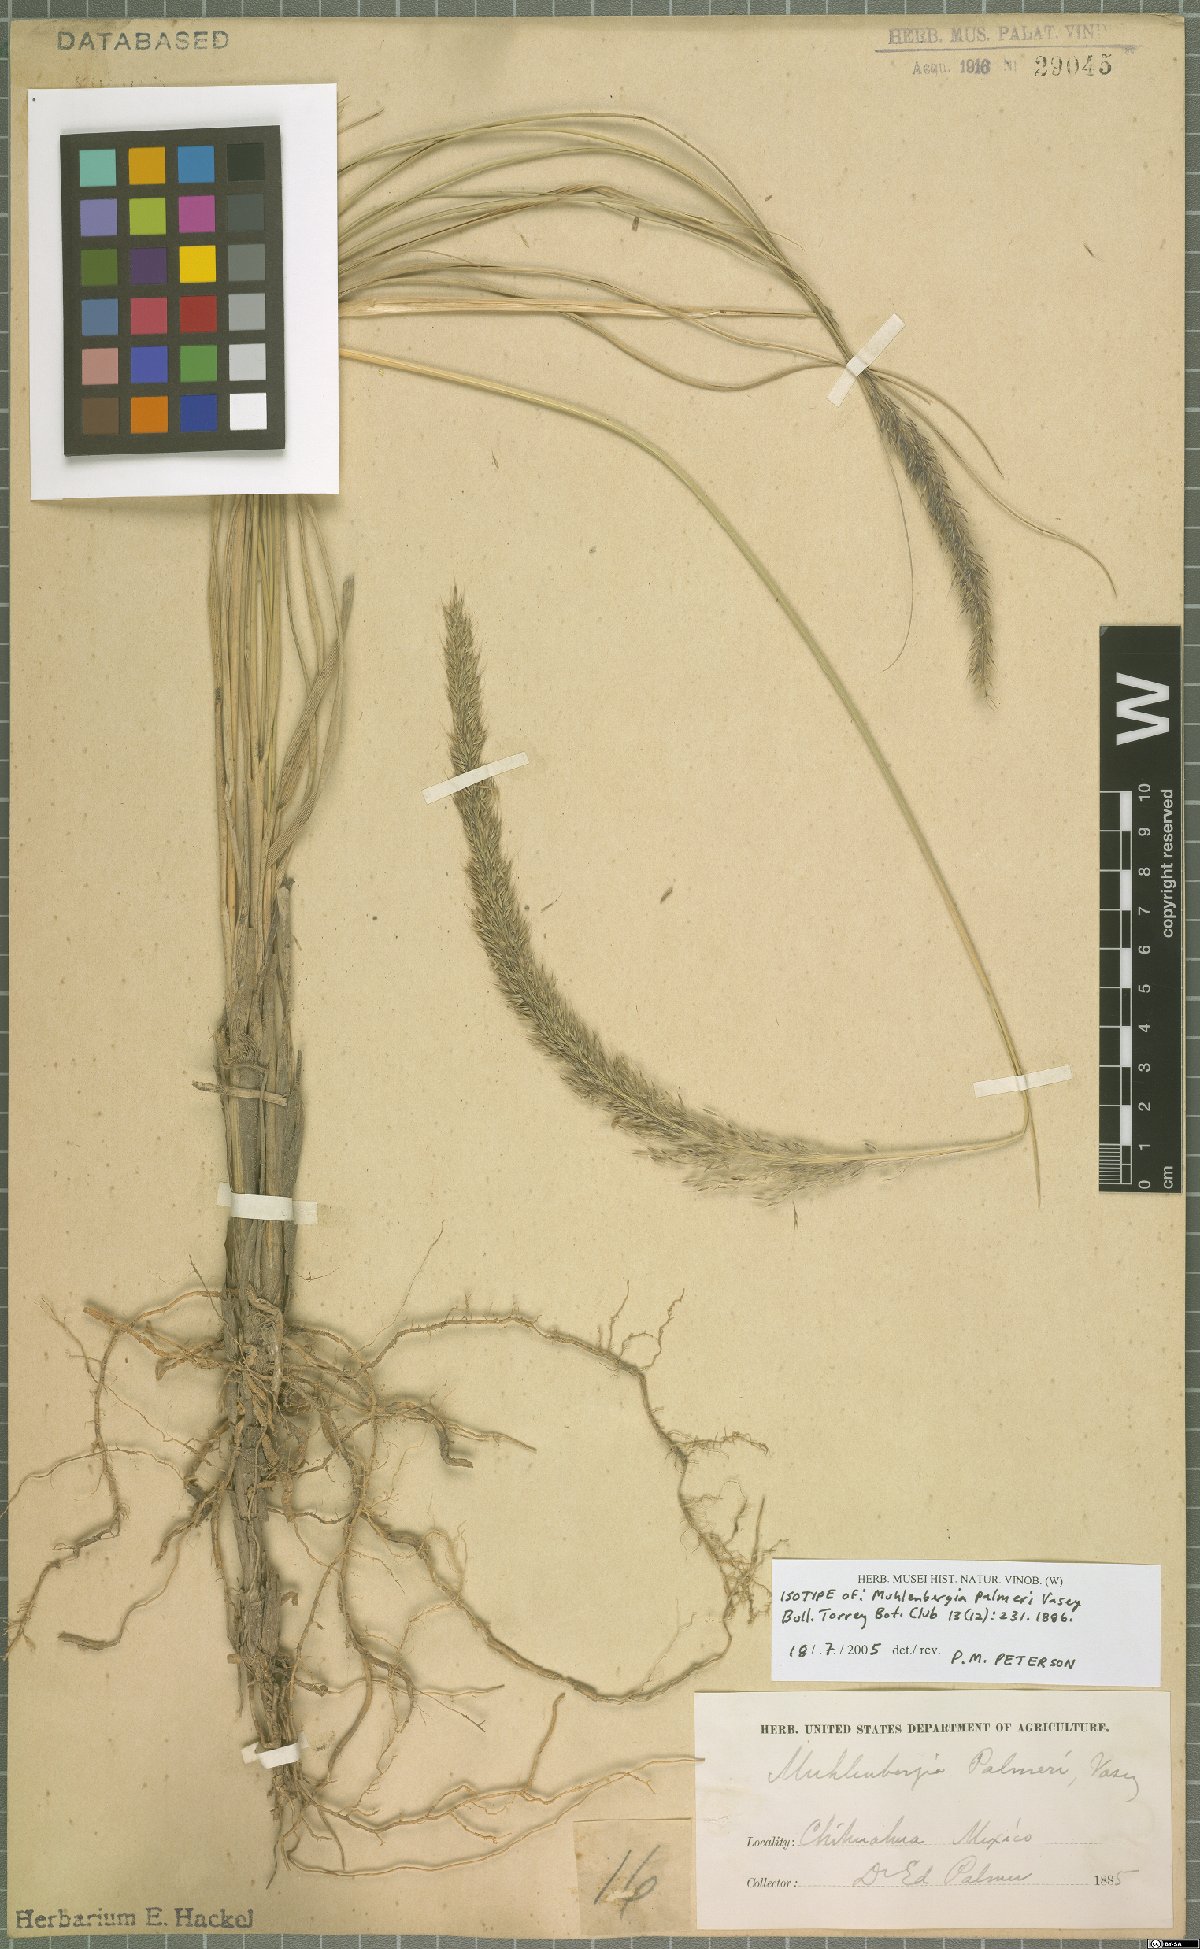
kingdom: Plantae
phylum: Tracheophyta
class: Liliopsida
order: Poales
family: Poaceae
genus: Muhlenbergia
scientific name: Muhlenbergia palmeri
